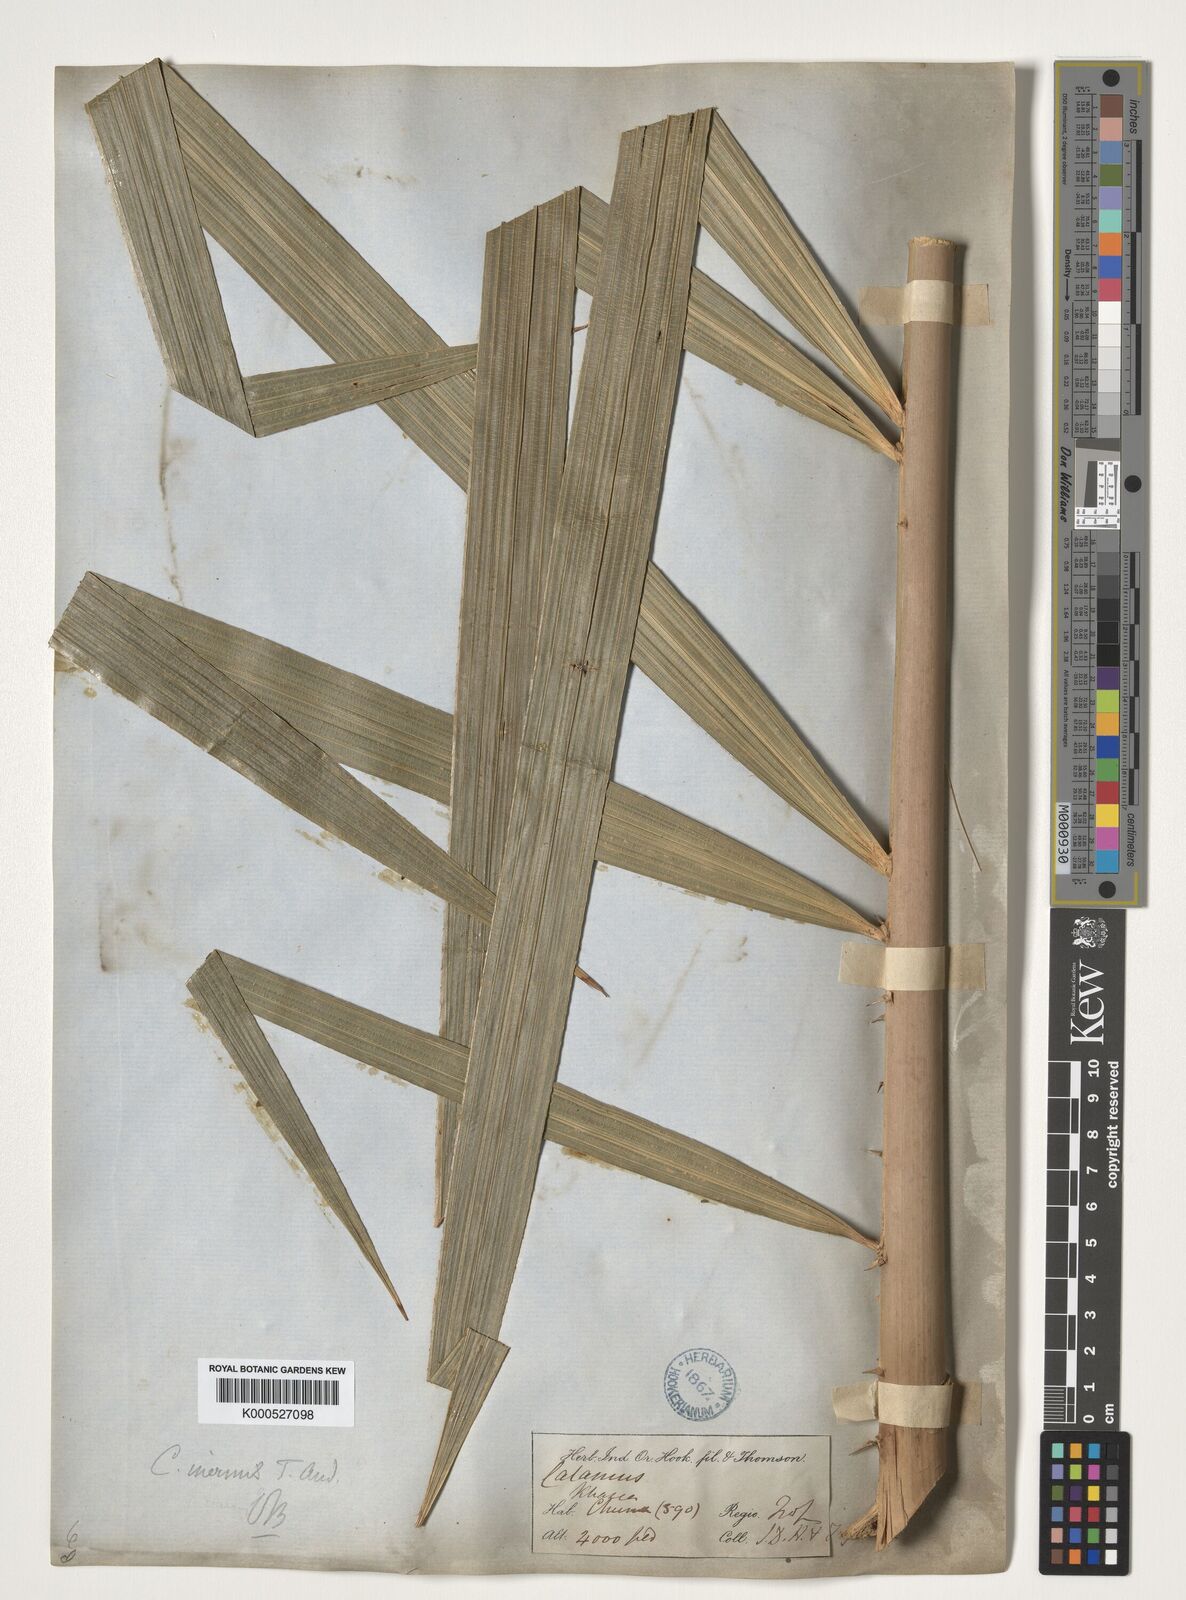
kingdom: Plantae
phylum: Tracheophyta
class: Liliopsida
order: Arecales
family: Arecaceae
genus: Calamus
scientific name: Calamus latifolius
